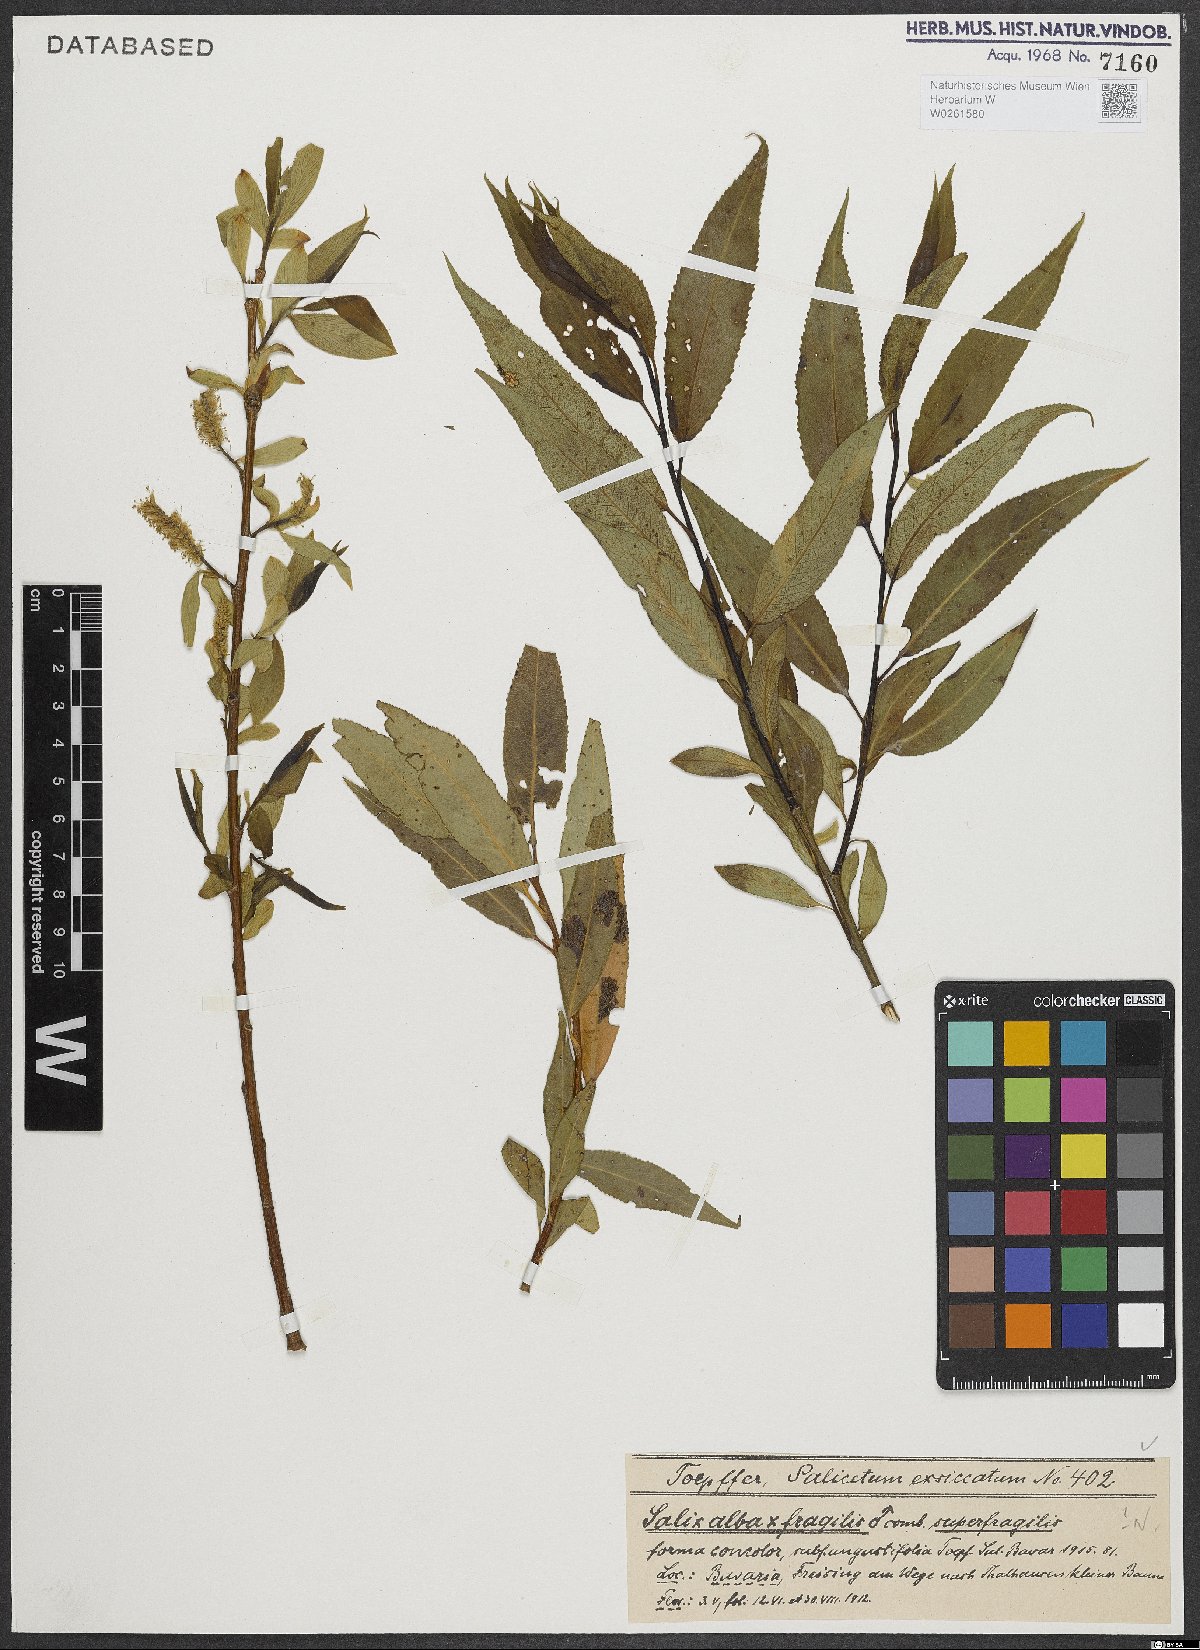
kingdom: Plantae
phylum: Tracheophyta
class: Magnoliopsida
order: Malpighiales
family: Salicaceae
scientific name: Salicaceae
